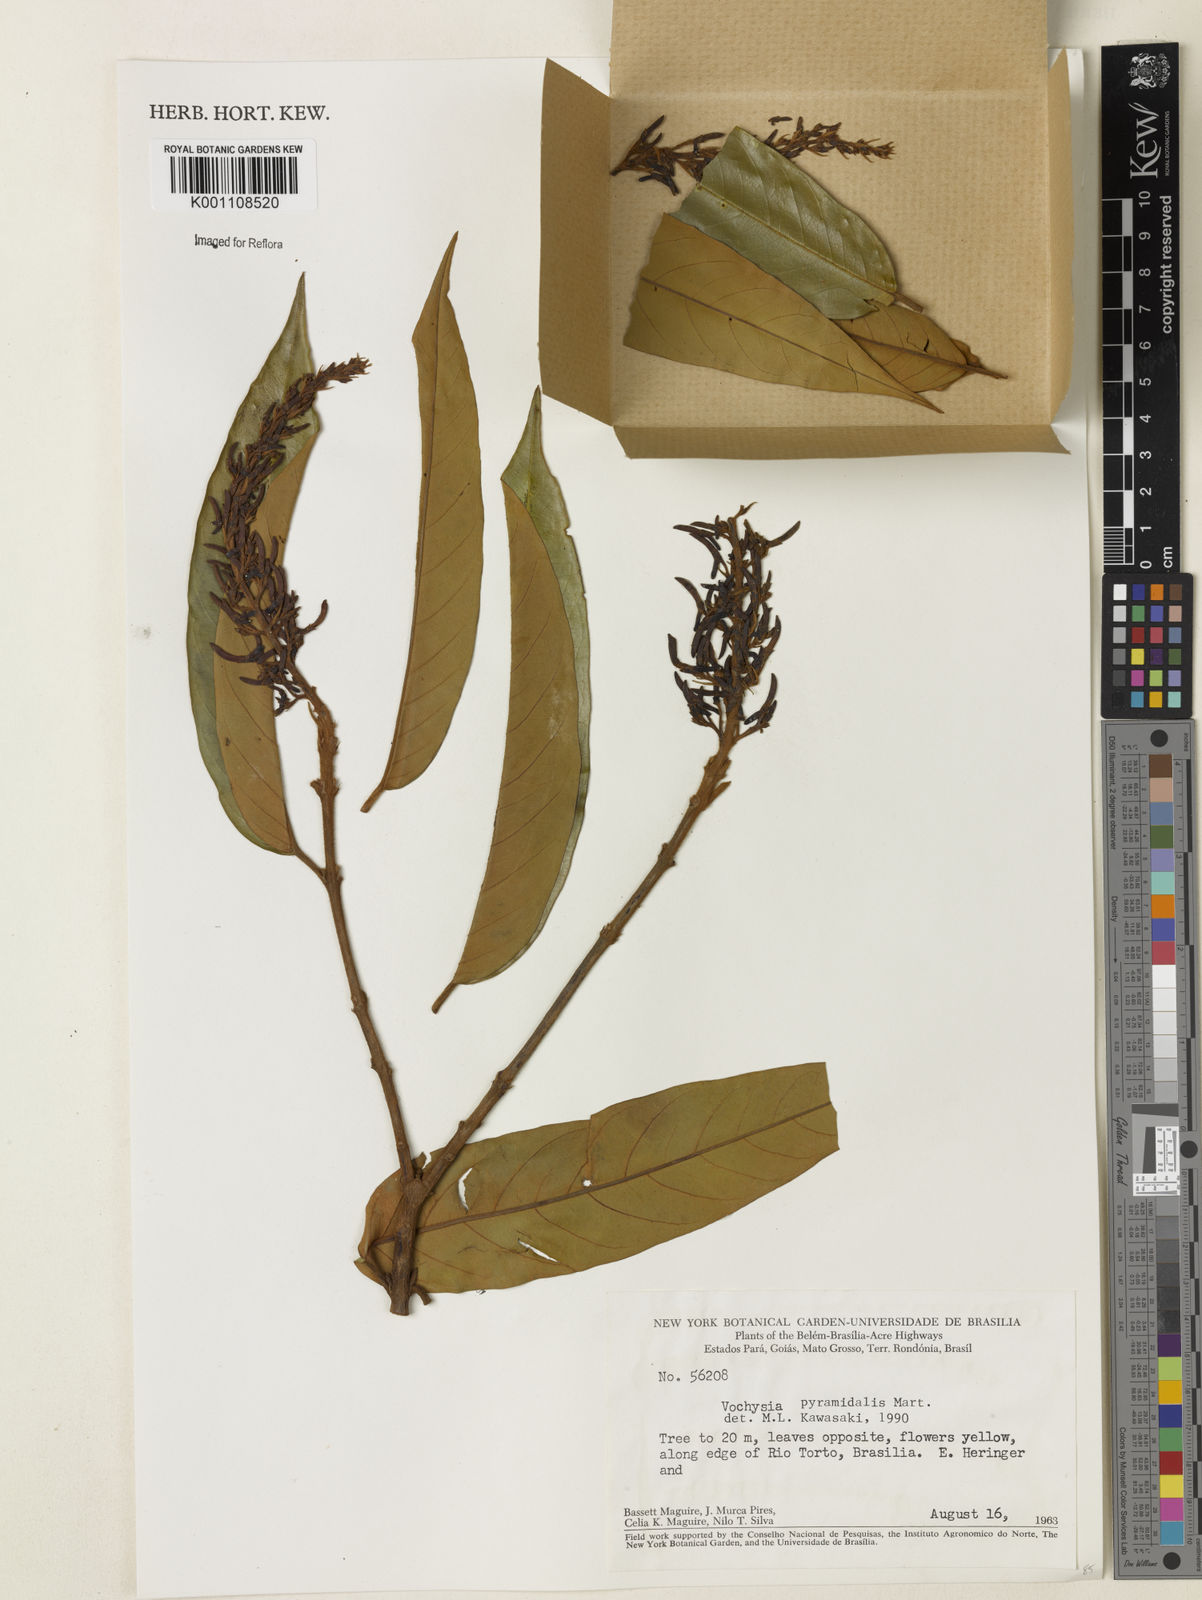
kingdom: Plantae
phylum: Tracheophyta
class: Magnoliopsida
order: Myrtales
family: Vochysiaceae
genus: Vochysia
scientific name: Vochysia pyramidalis
